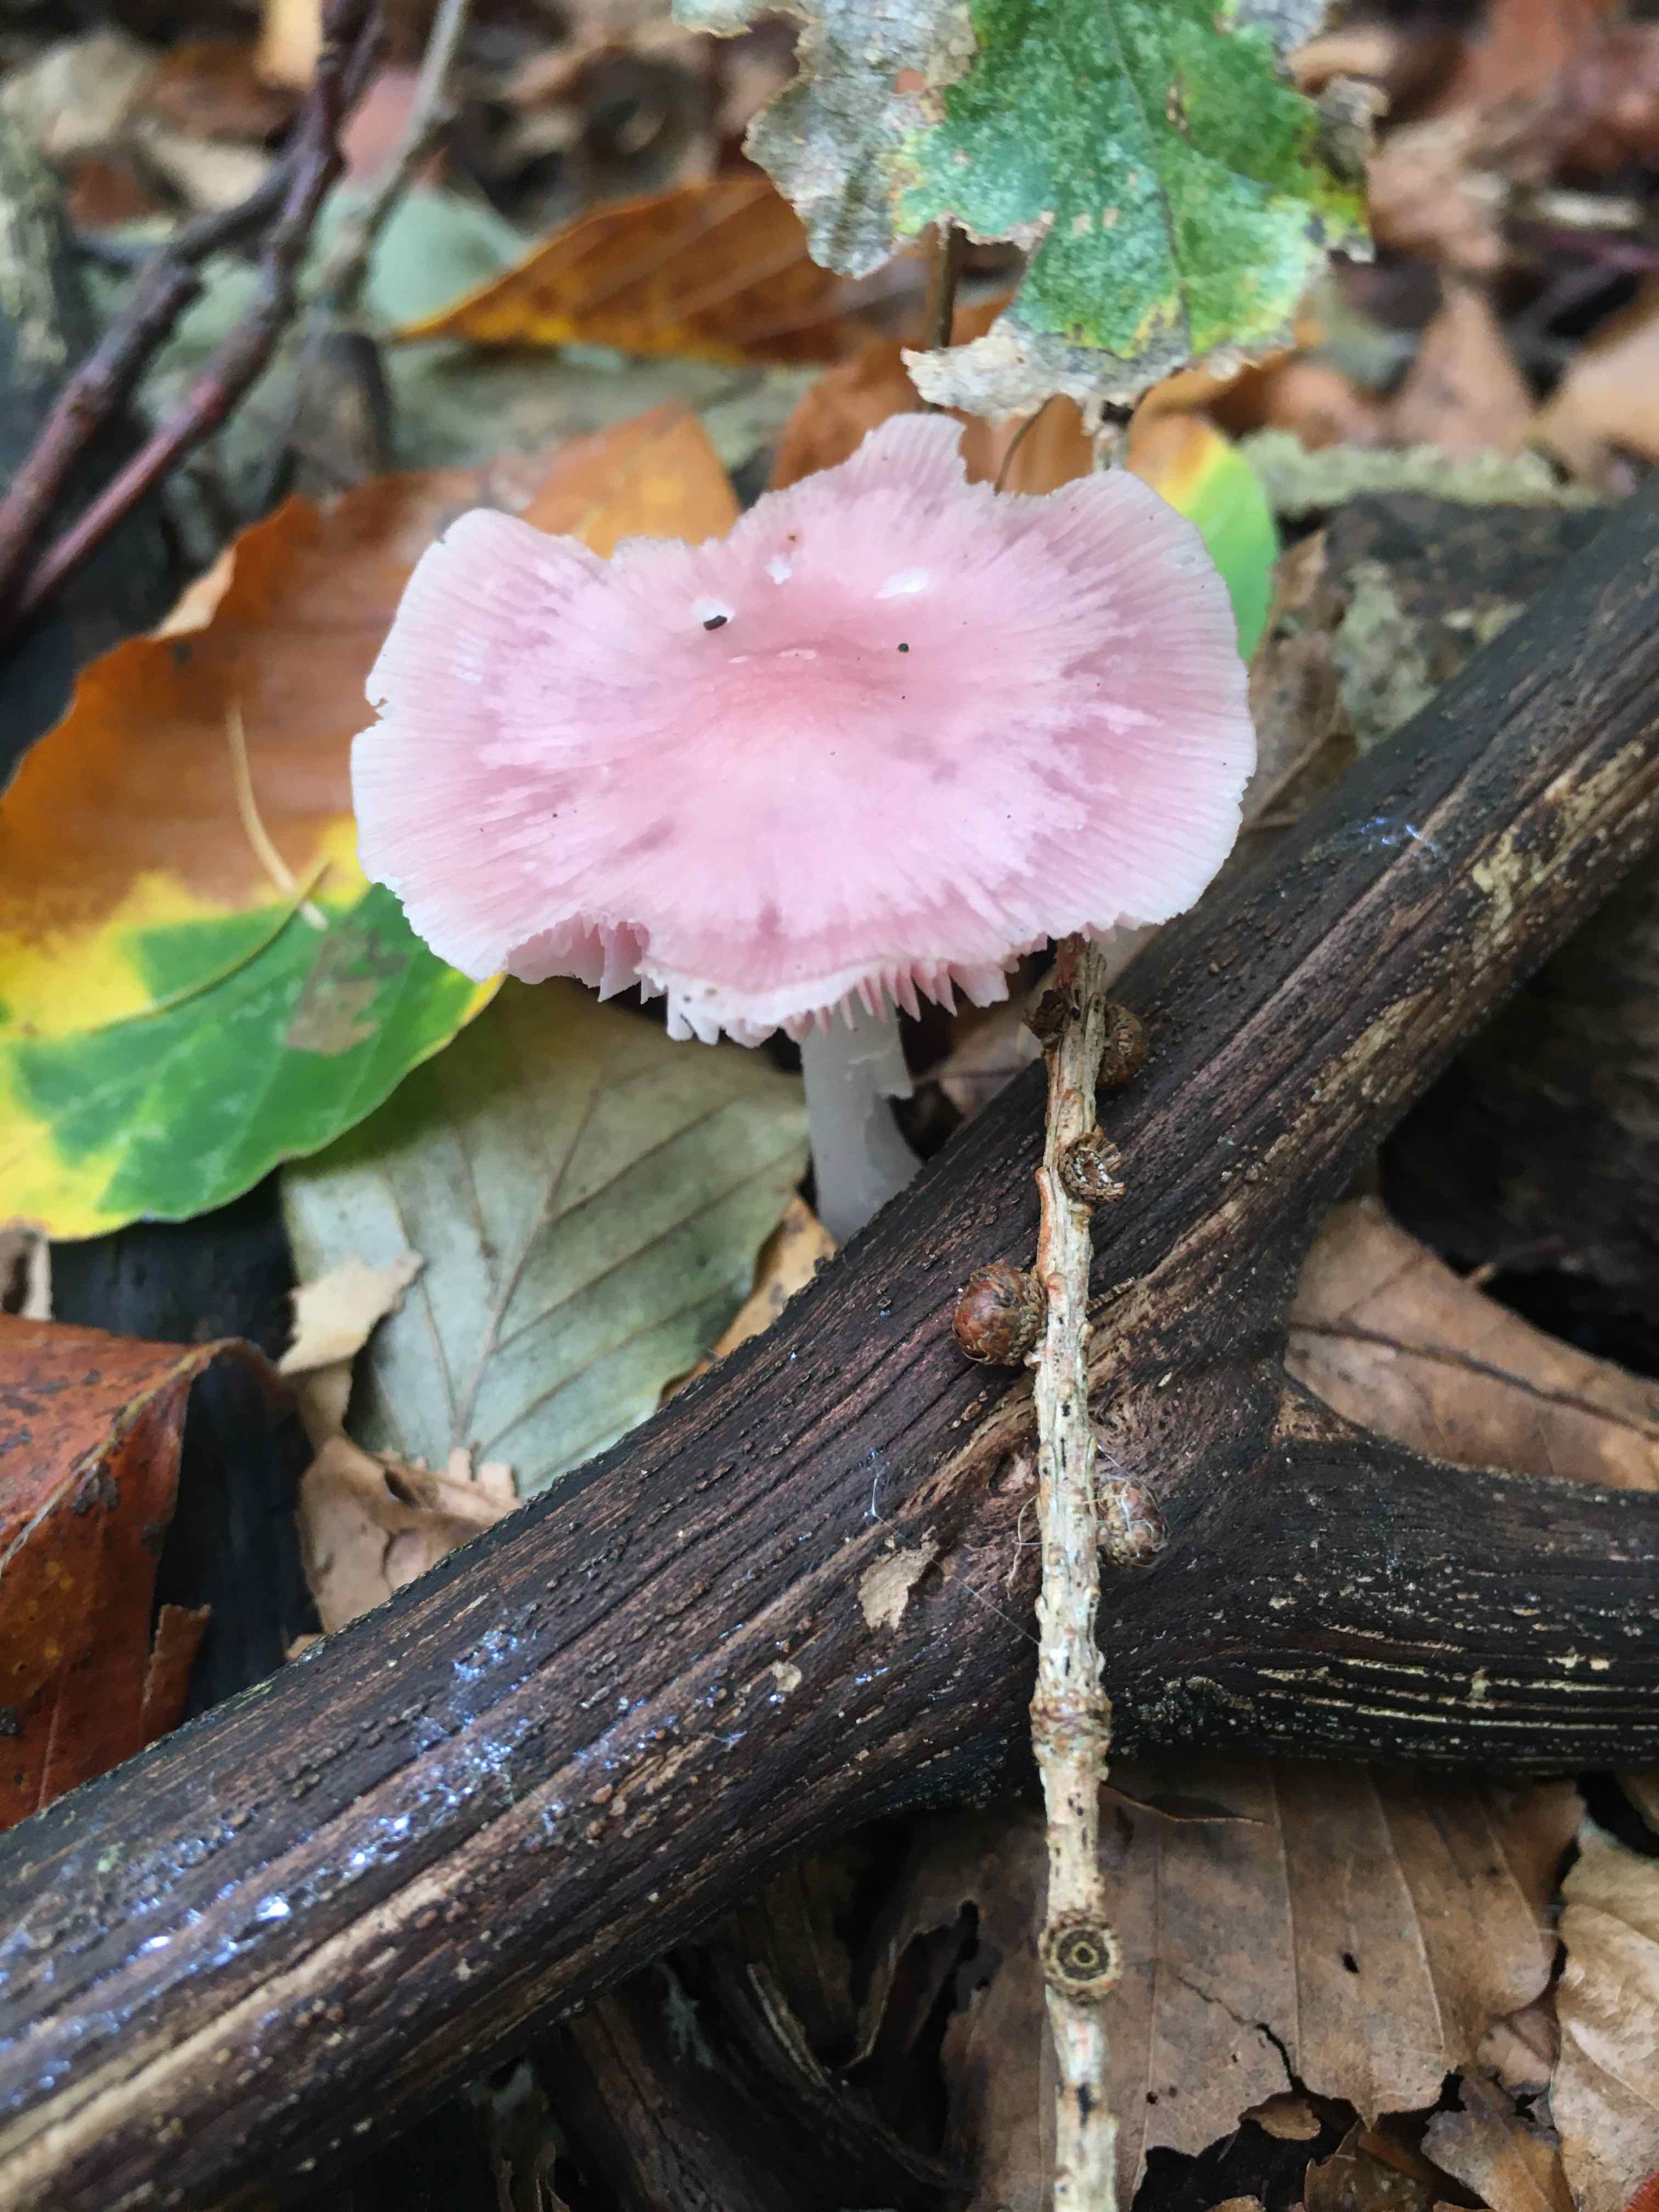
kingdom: Fungi
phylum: Basidiomycota
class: Agaricomycetes
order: Agaricales
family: Mycenaceae
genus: Mycena
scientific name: Mycena rosea
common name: rosa huesvamp
